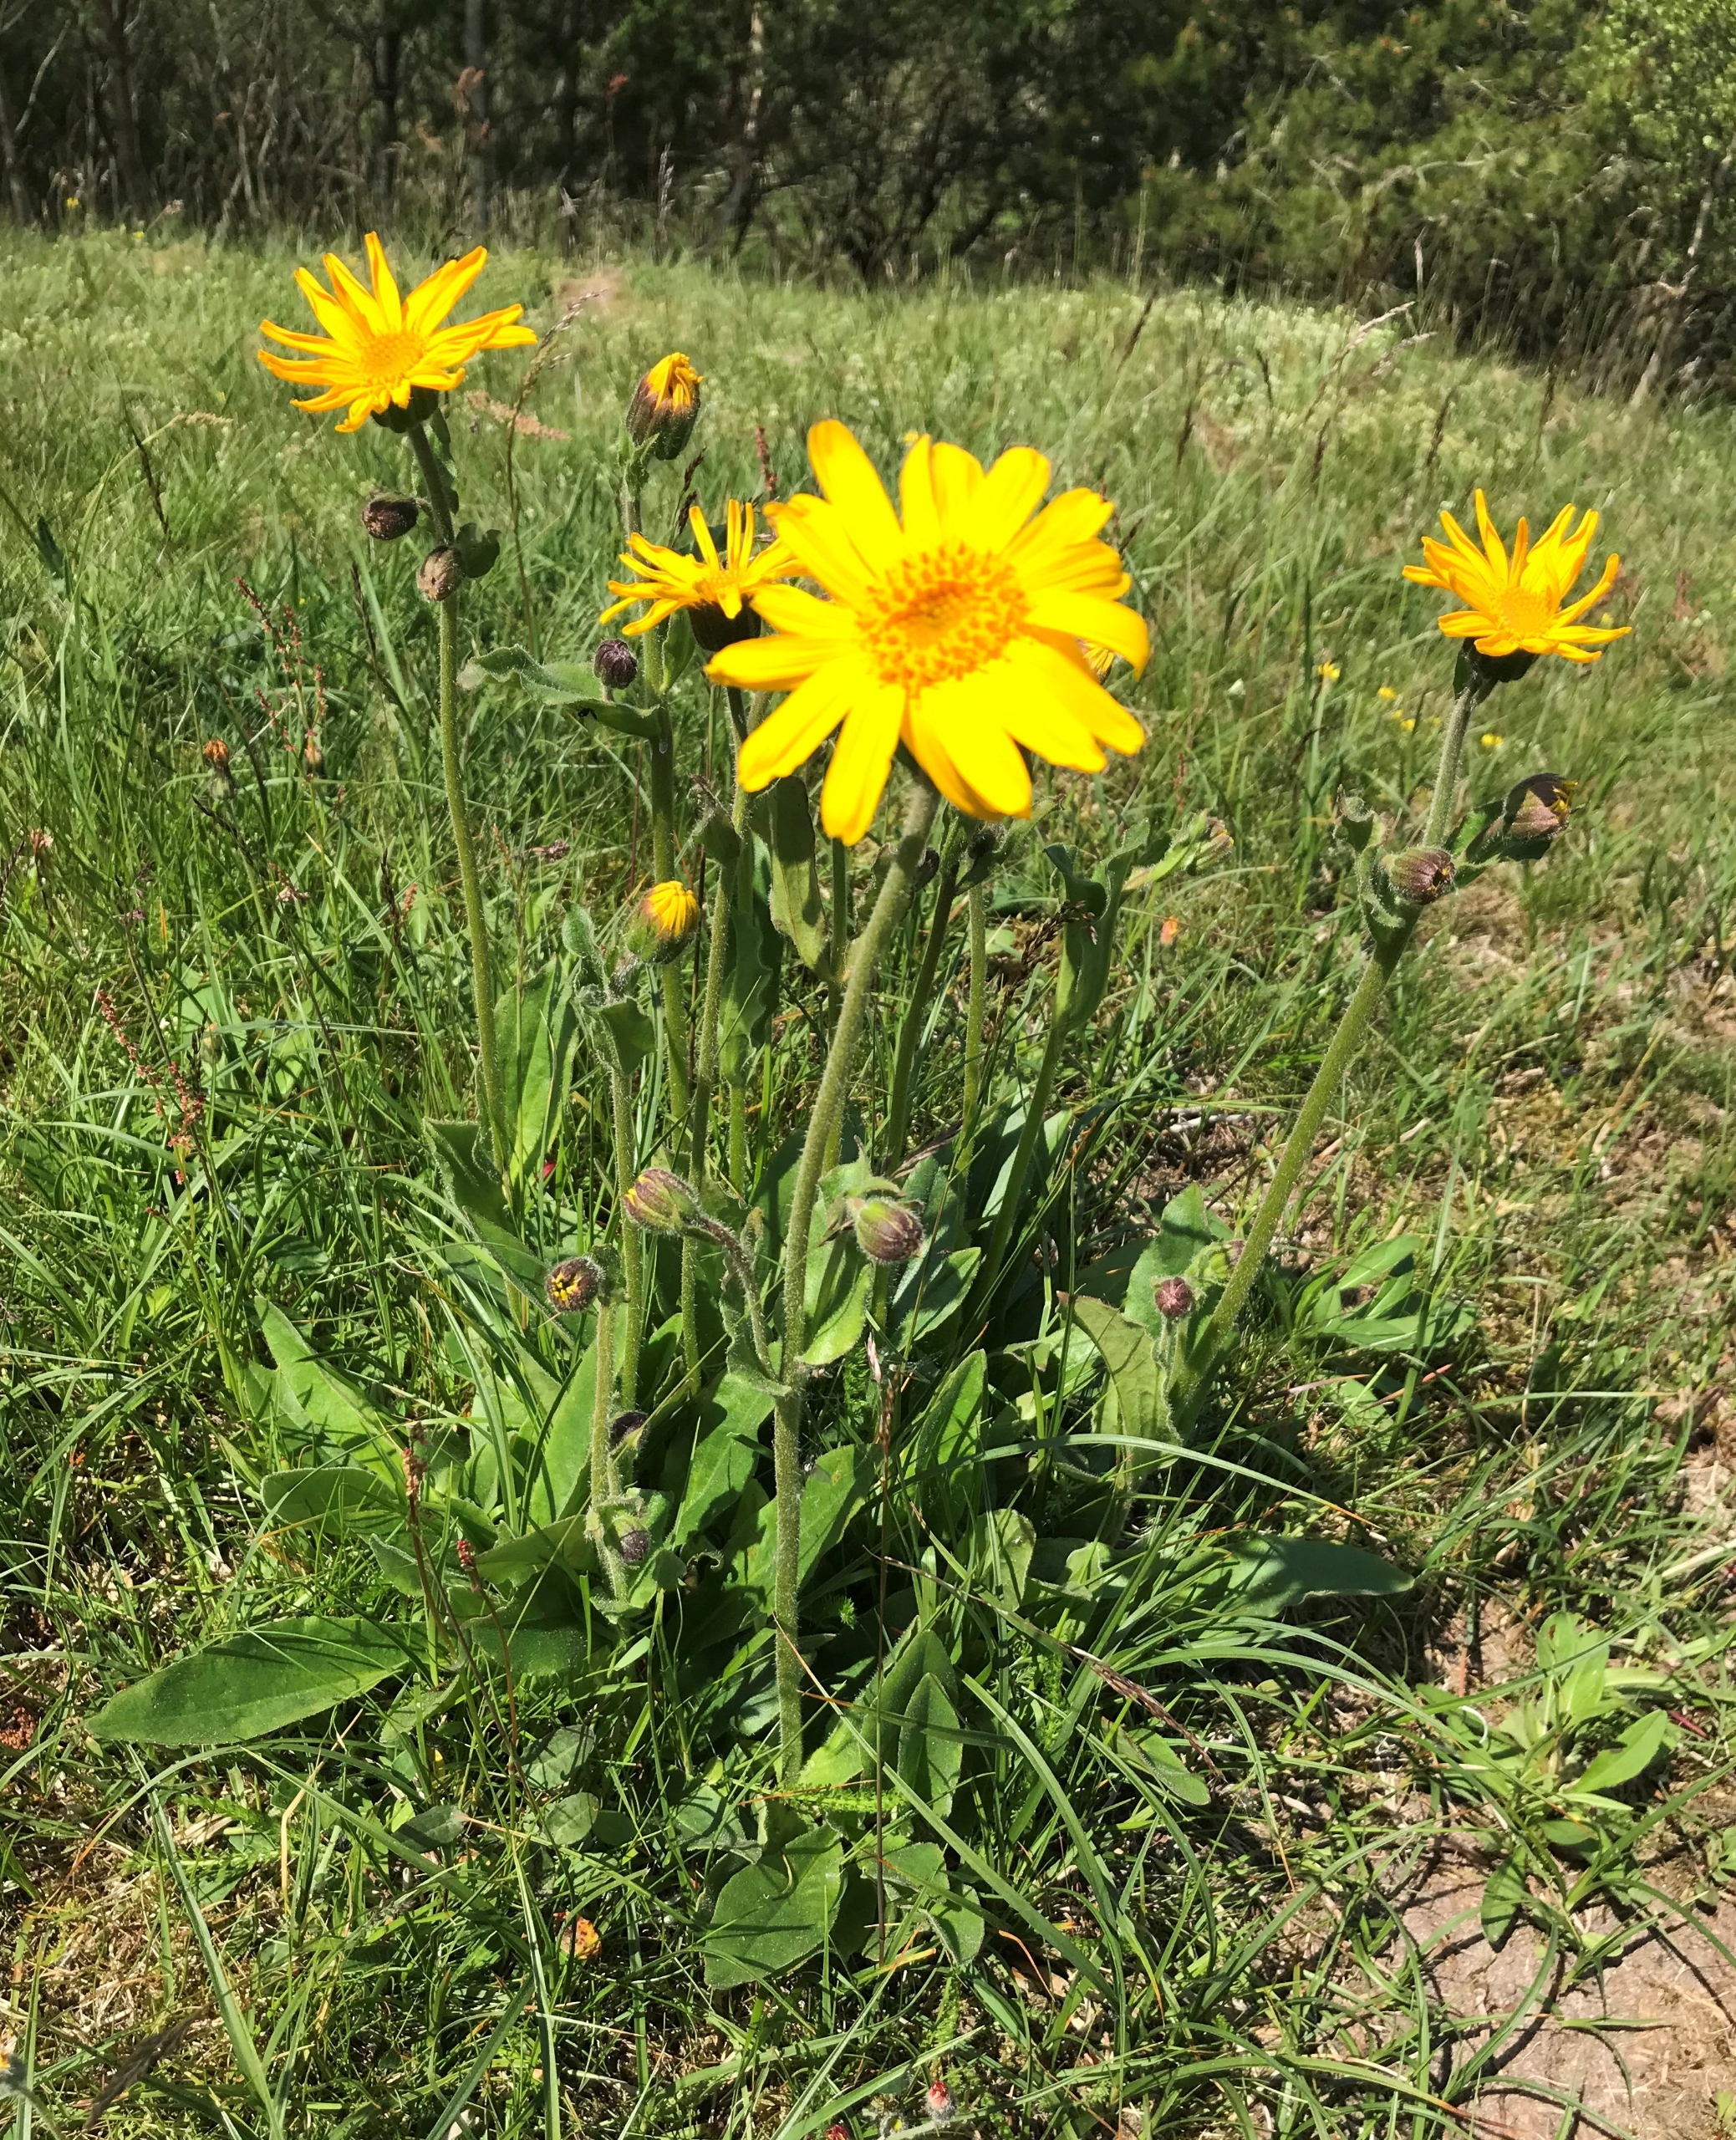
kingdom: Plantae
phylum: Tracheophyta
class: Magnoliopsida
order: Asterales
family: Asteraceae
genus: Arnica
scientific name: Arnica montana
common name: Guldblomme
